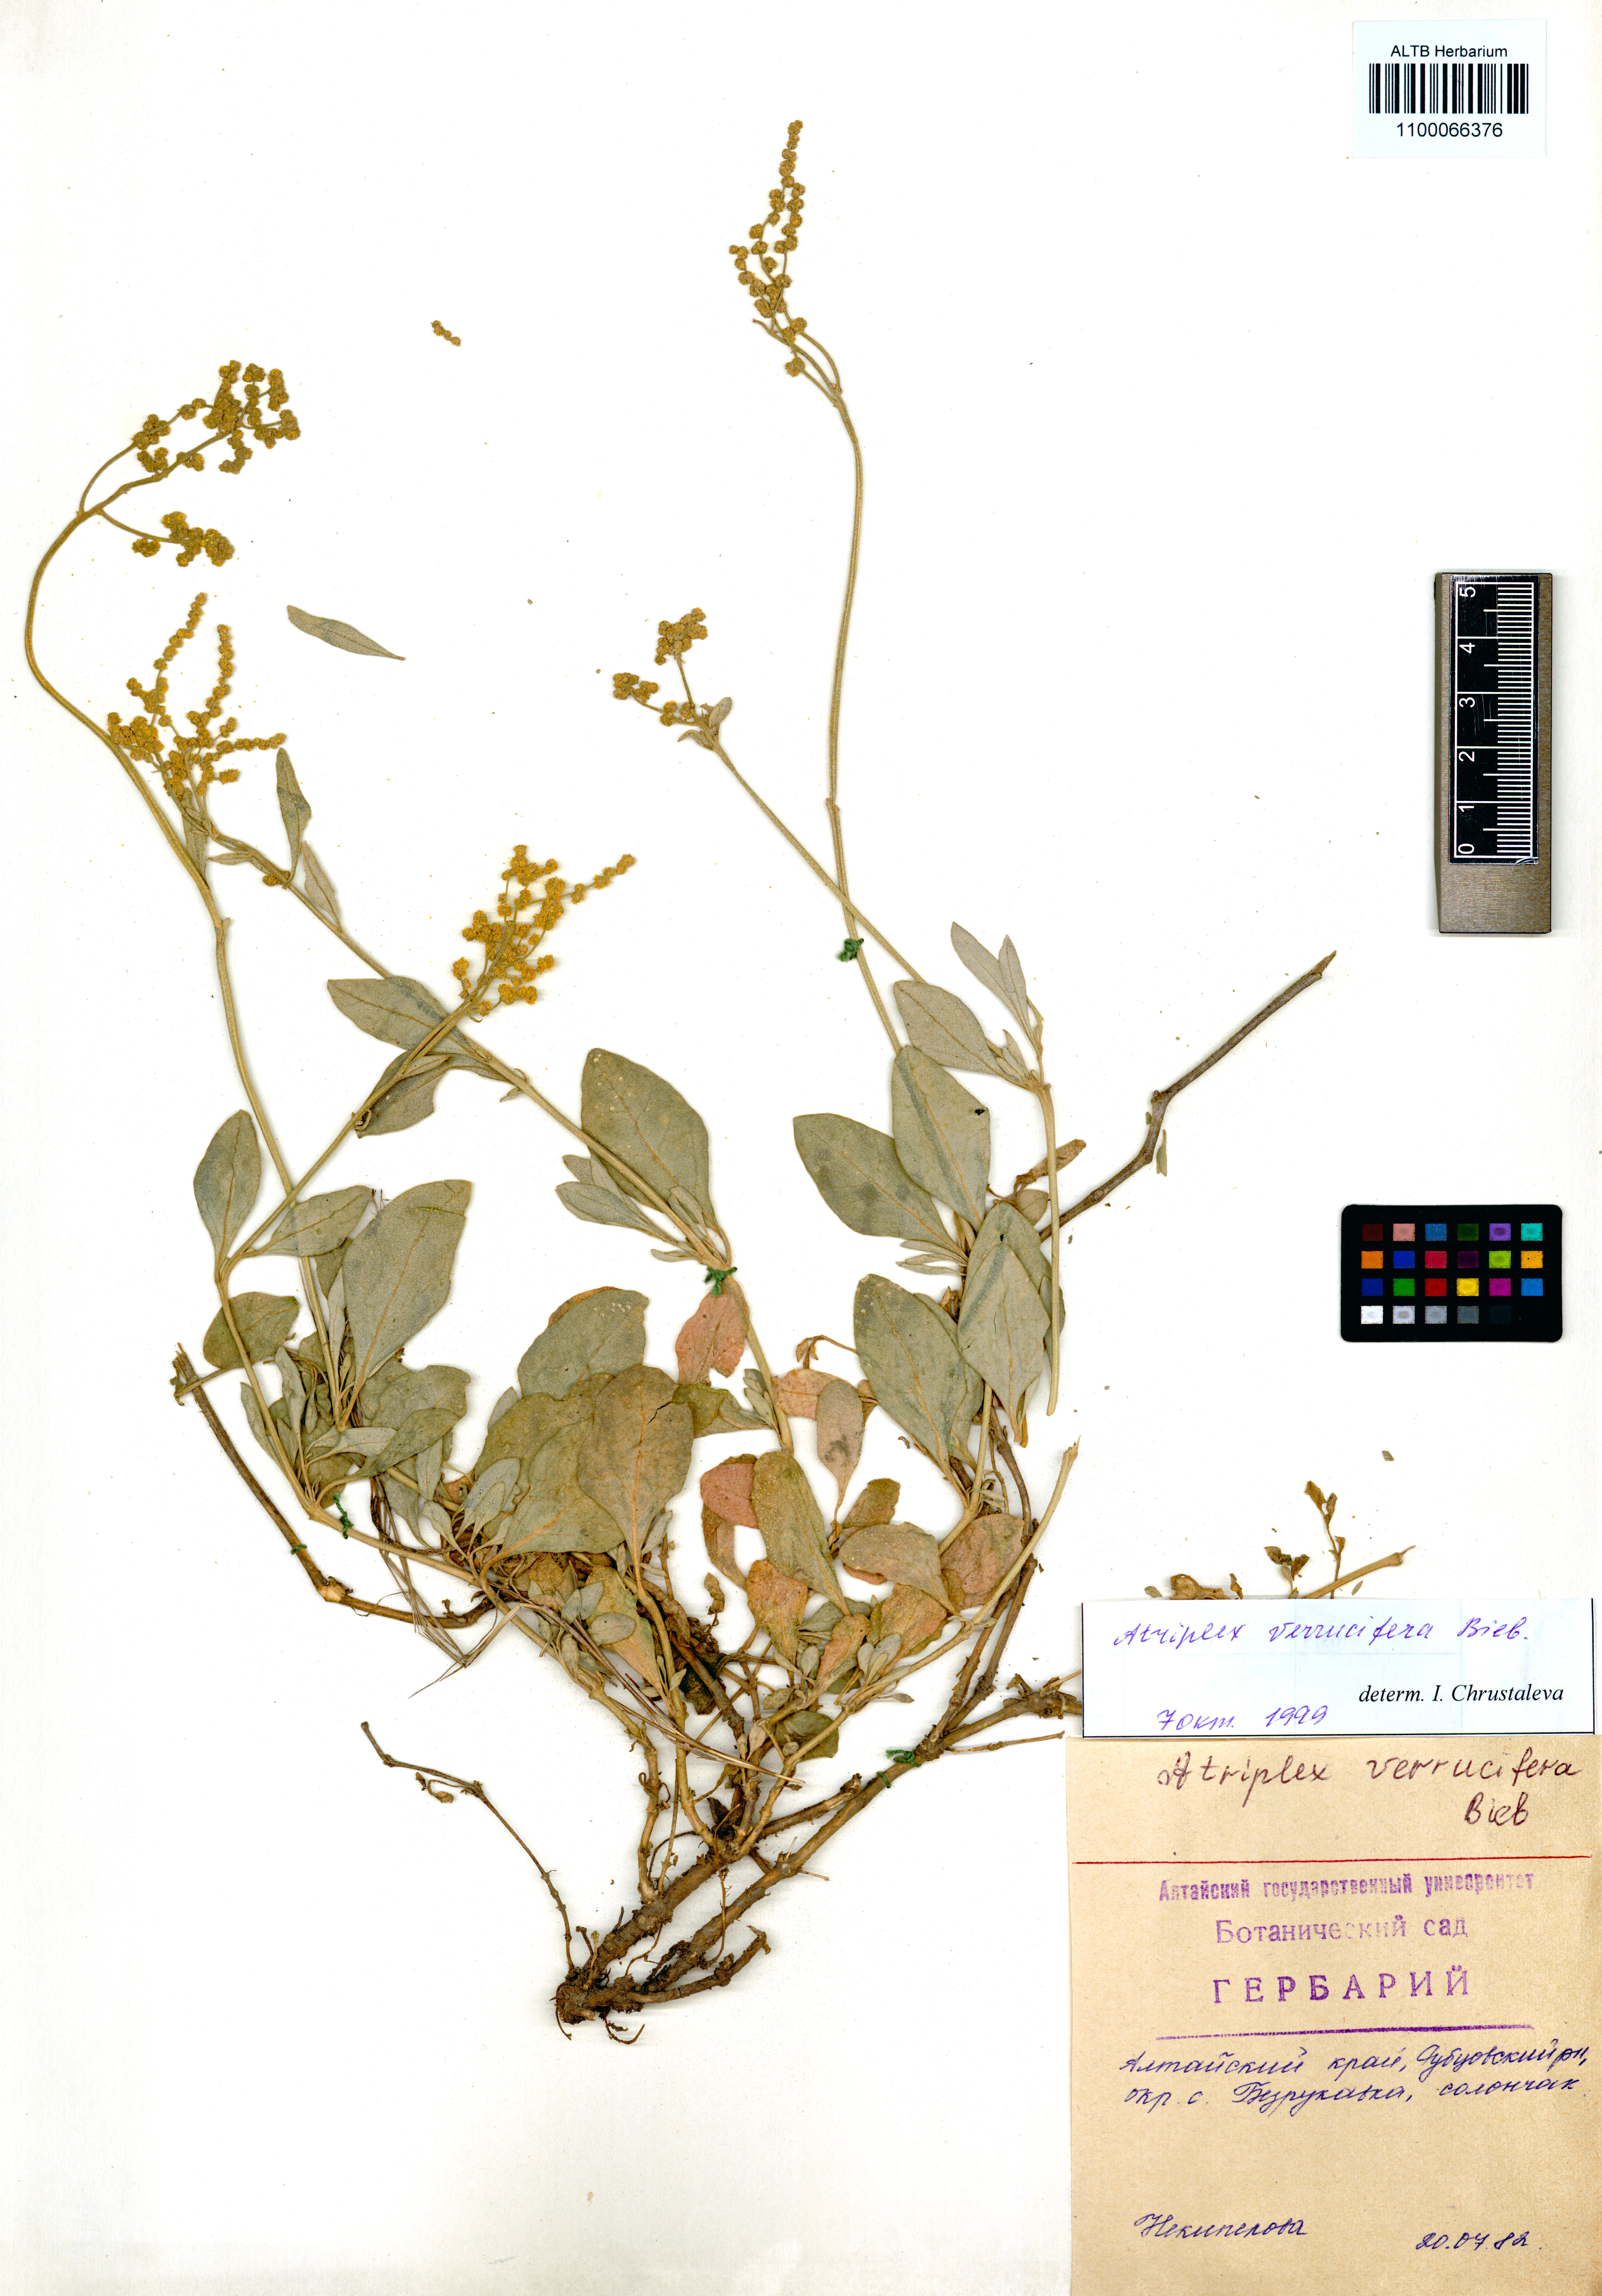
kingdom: Plantae
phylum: Tracheophyta
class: Magnoliopsida
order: Caryophyllales
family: Amaranthaceae
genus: Halimione
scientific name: Halimione verrucifera
